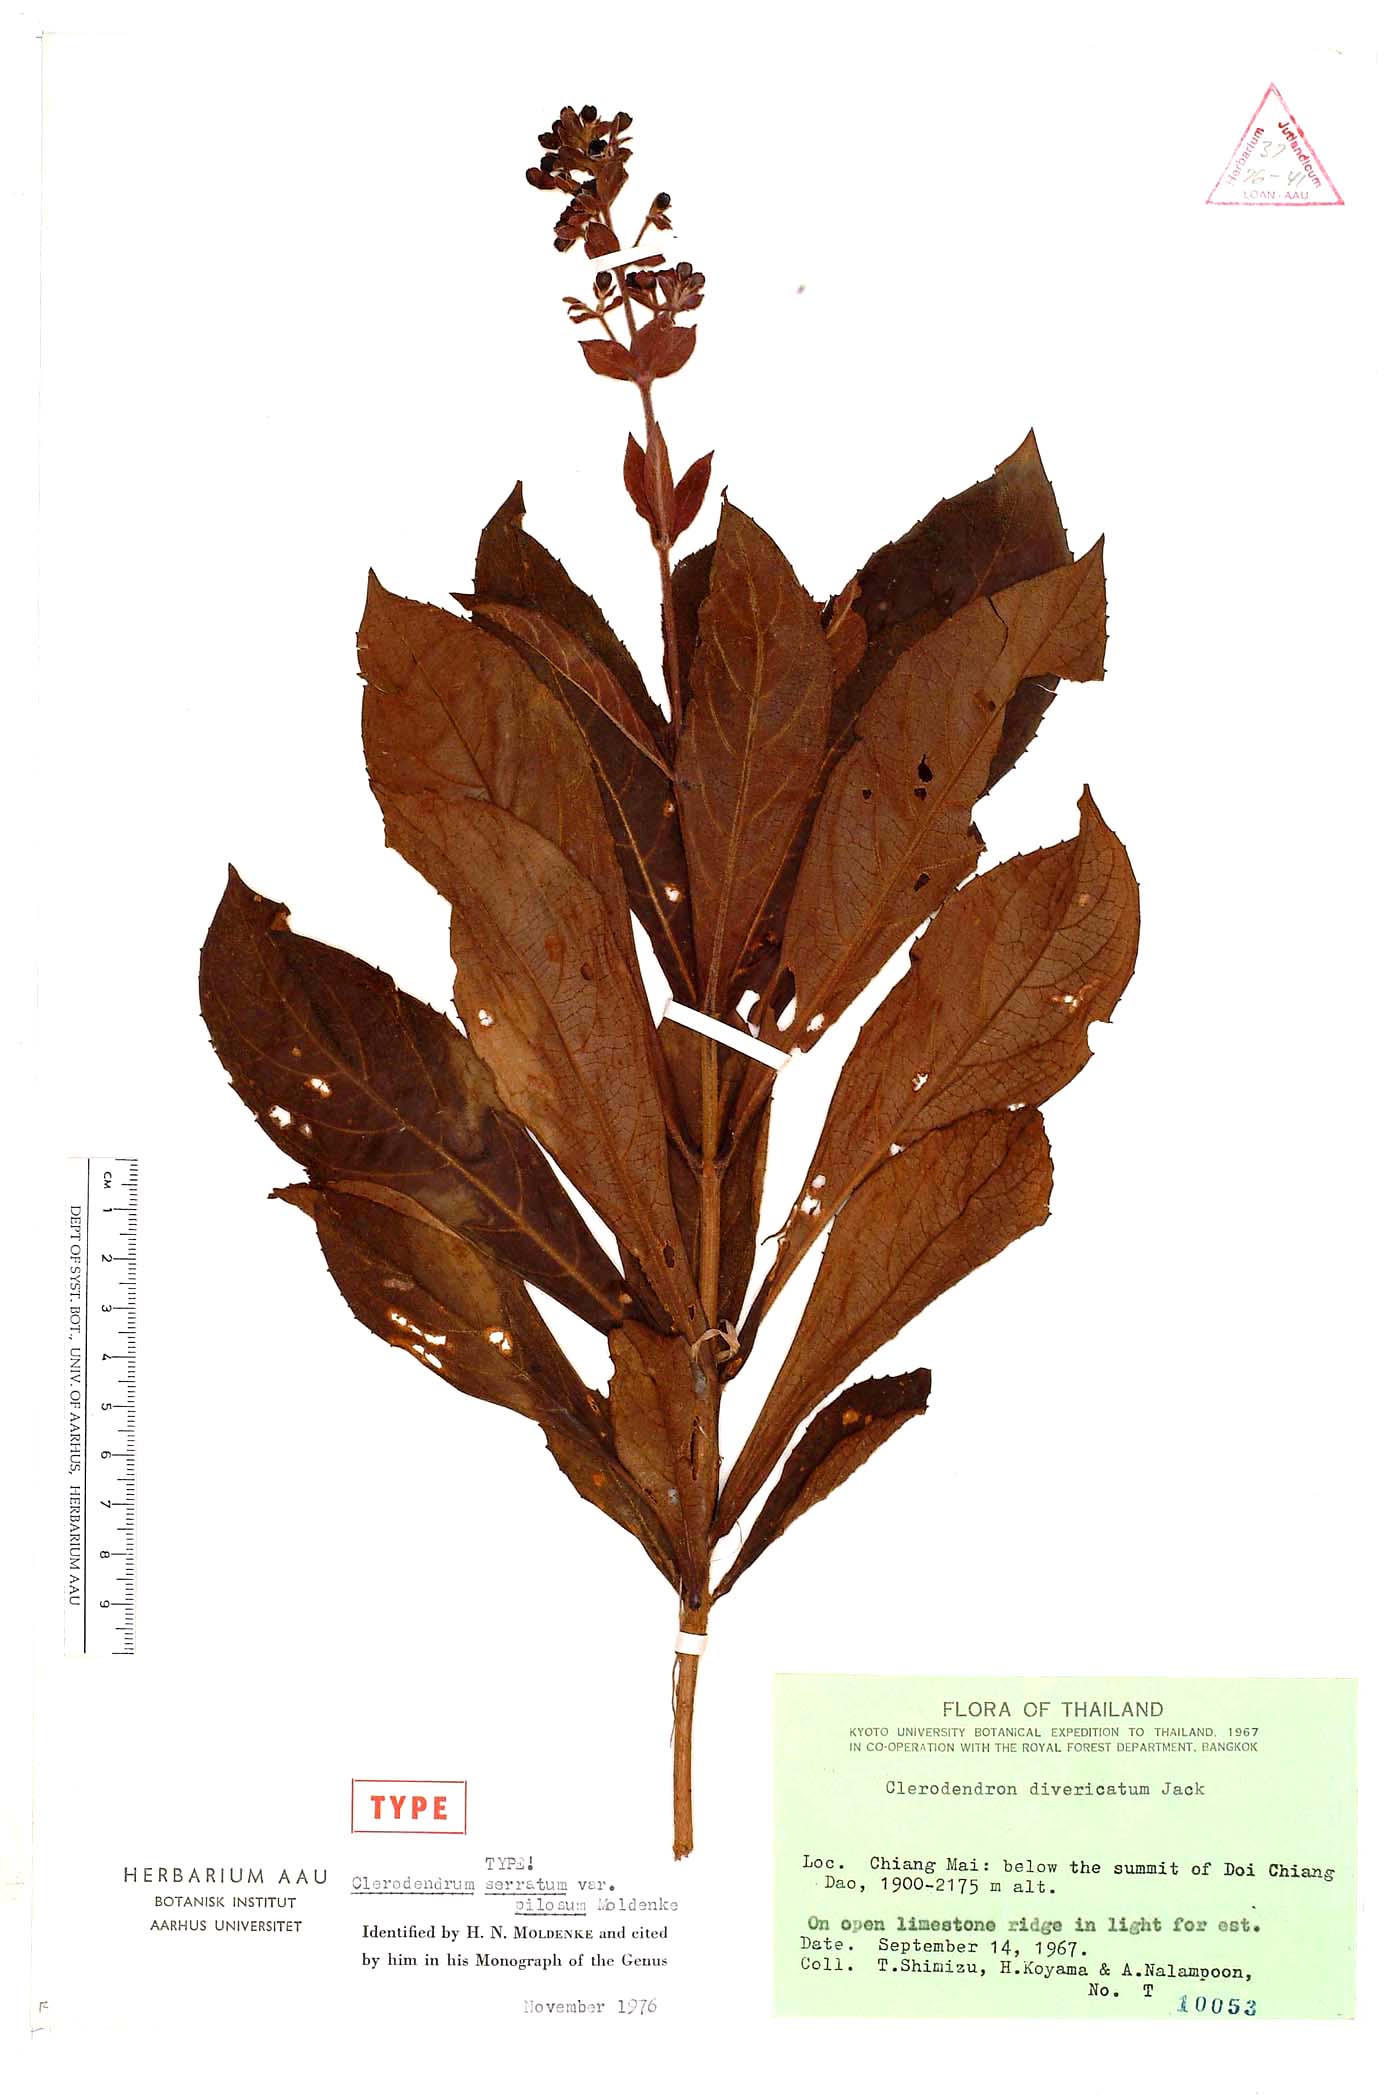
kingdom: Plantae
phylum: Tracheophyta
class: Magnoliopsida
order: Lamiales
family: Lamiaceae
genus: Rotheca
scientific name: Rotheca serrata
